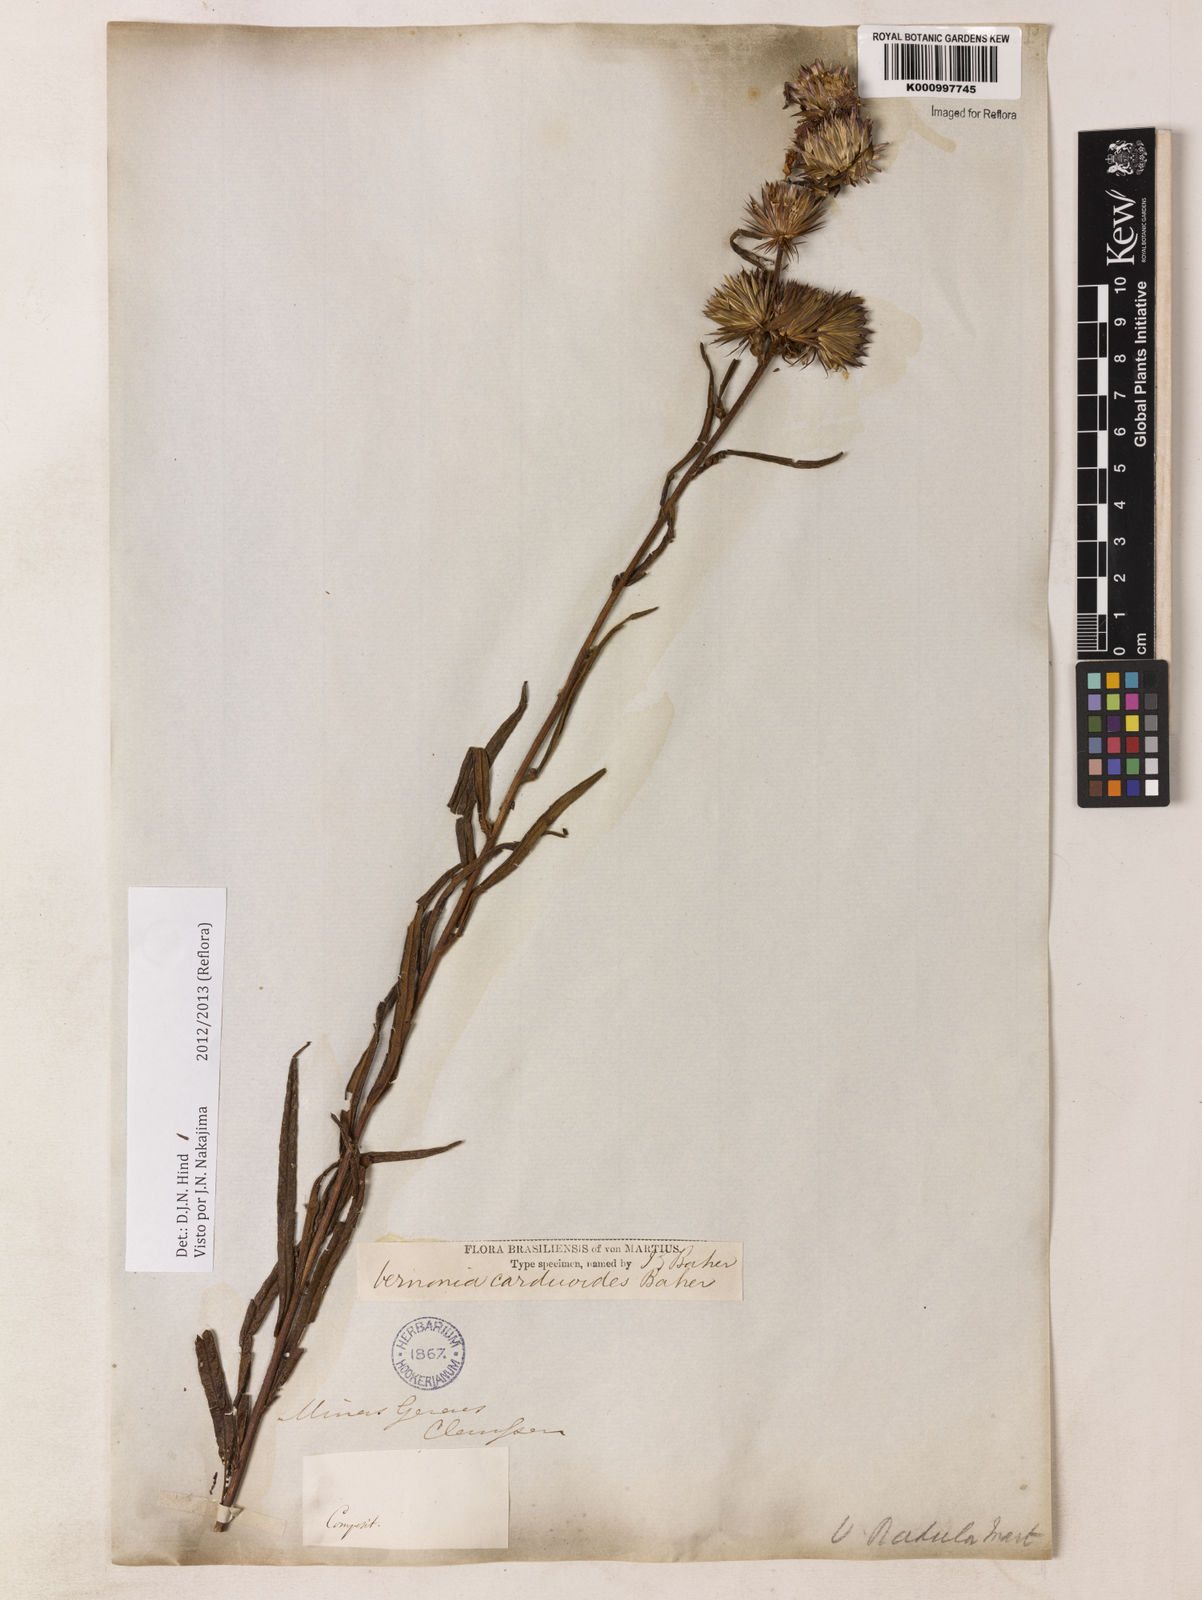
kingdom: Plantae
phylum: Tracheophyta
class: Magnoliopsida
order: Asterales
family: Asteraceae
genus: Lessingianthus
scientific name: Lessingianthus carduoides
